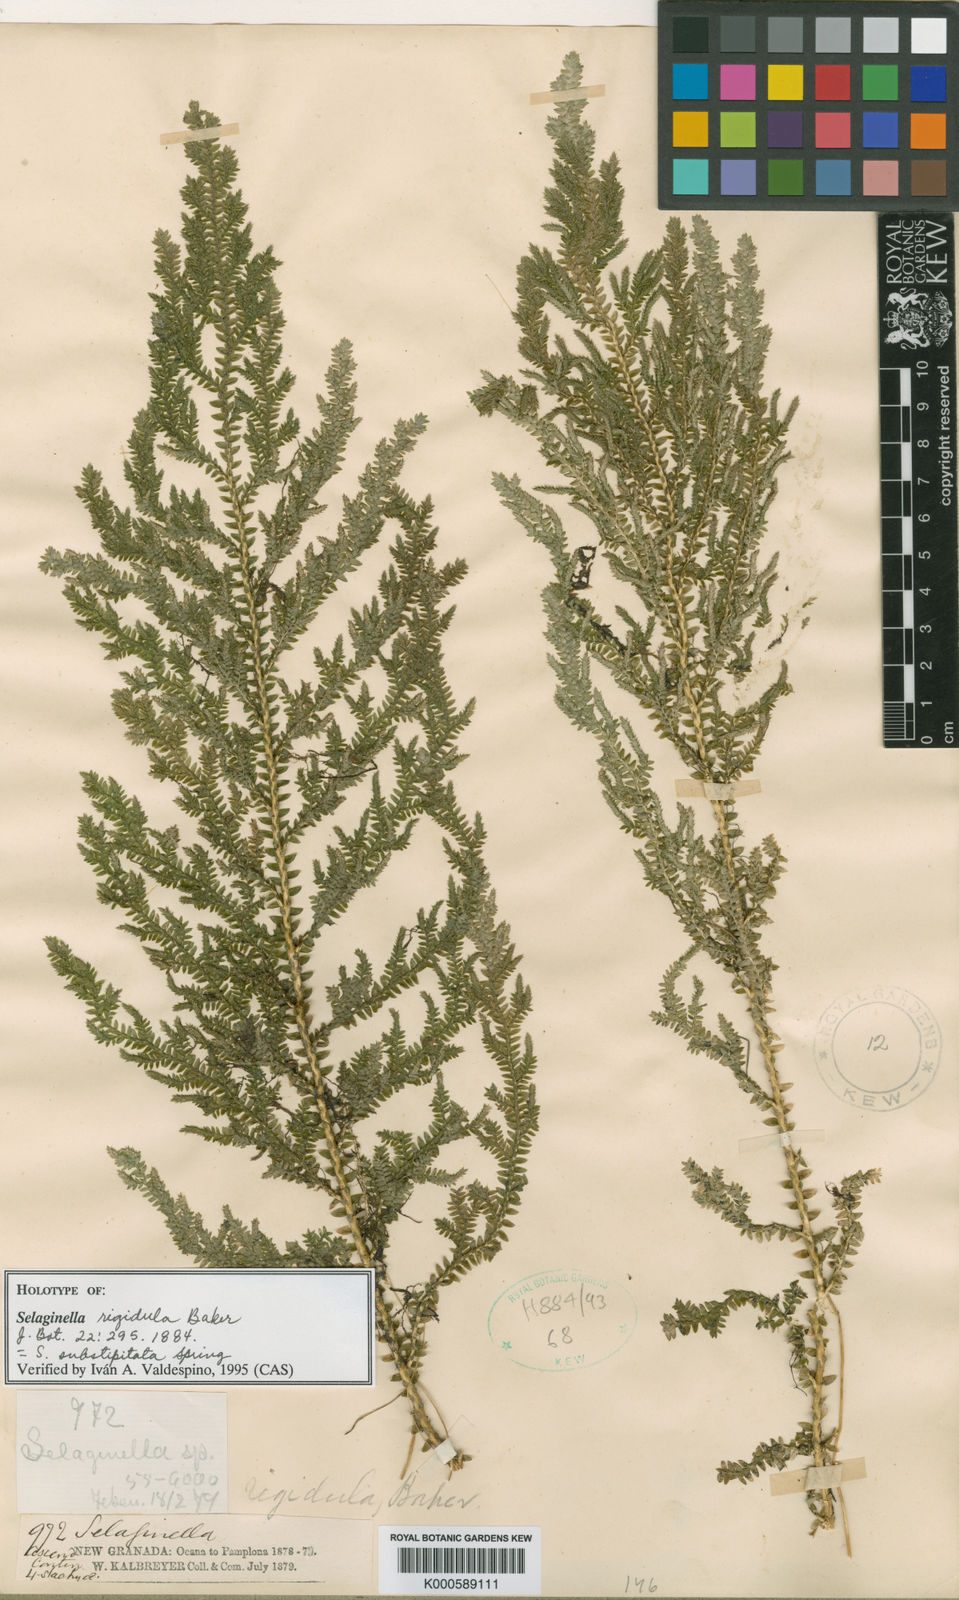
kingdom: Plantae
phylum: Tracheophyta
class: Lycopodiopsida
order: Selaginellales
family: Selaginellaceae
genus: Selaginella
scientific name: Selaginella substipitata
